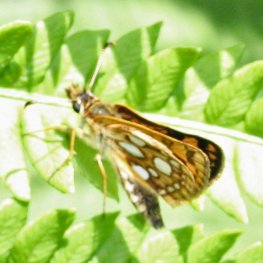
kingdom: Animalia
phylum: Arthropoda
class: Insecta
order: Lepidoptera
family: Hesperiidae
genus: Carterocephalus
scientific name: Carterocephalus palaemon
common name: Chequered Skipper
